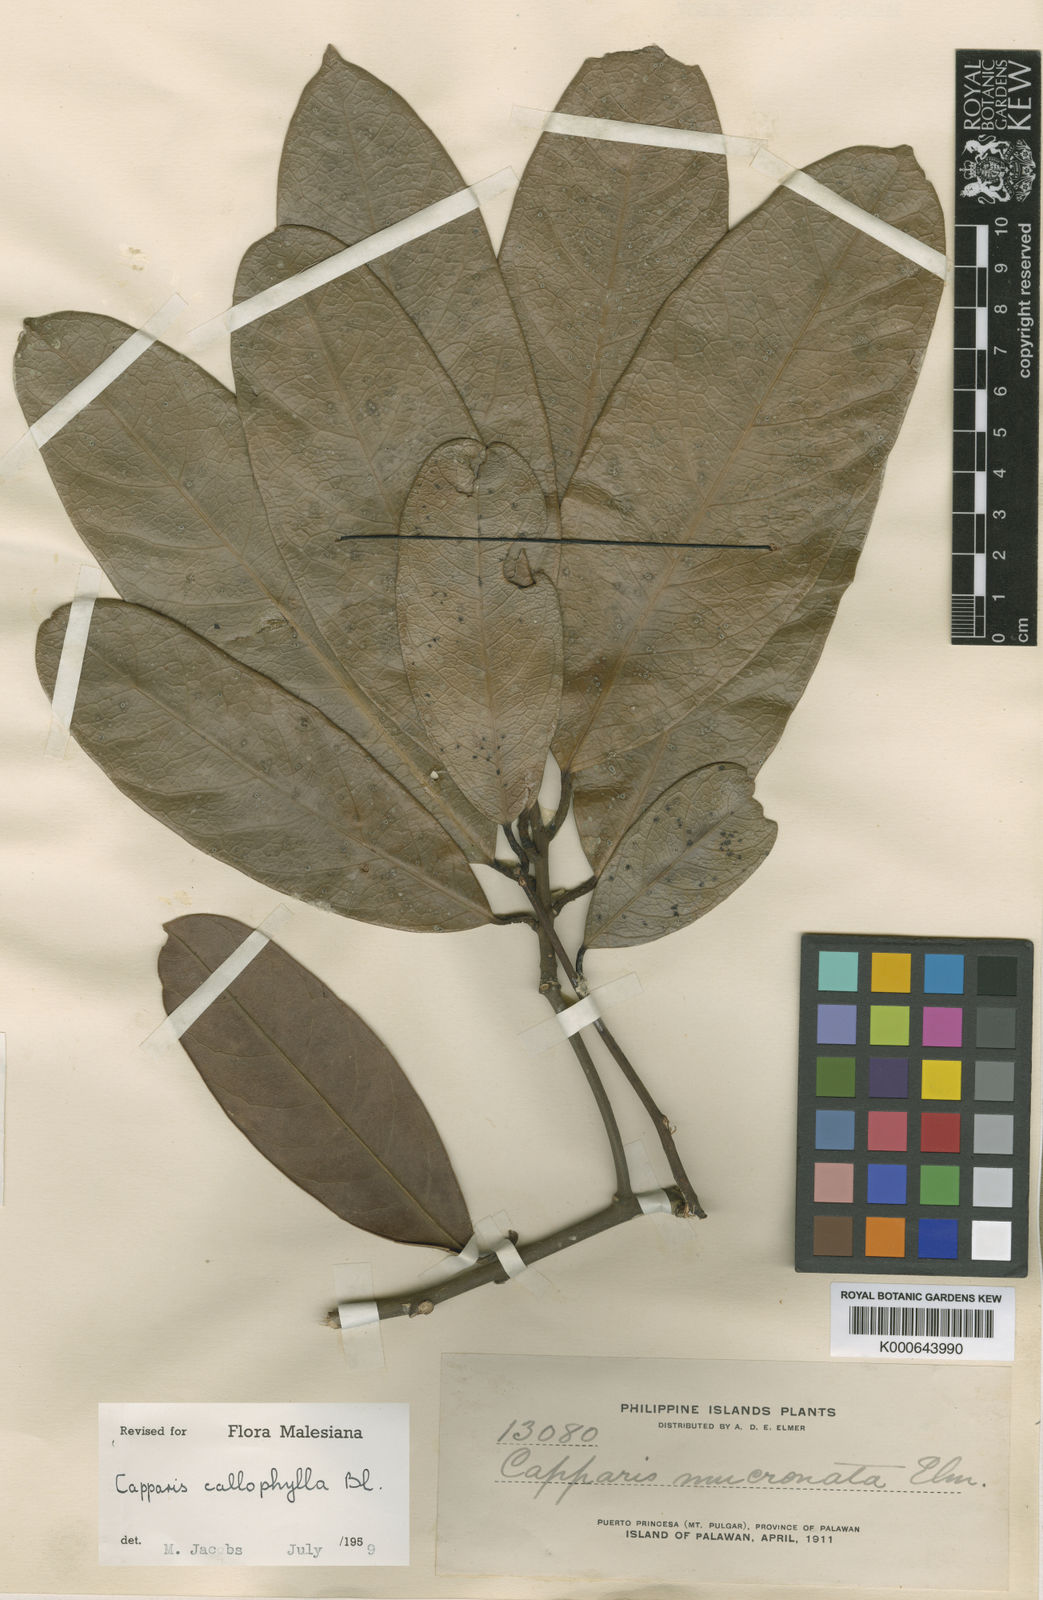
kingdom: Plantae
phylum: Tracheophyta
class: Magnoliopsida
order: Brassicales
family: Capparaceae
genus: Capparis
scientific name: Capparis callophylla
